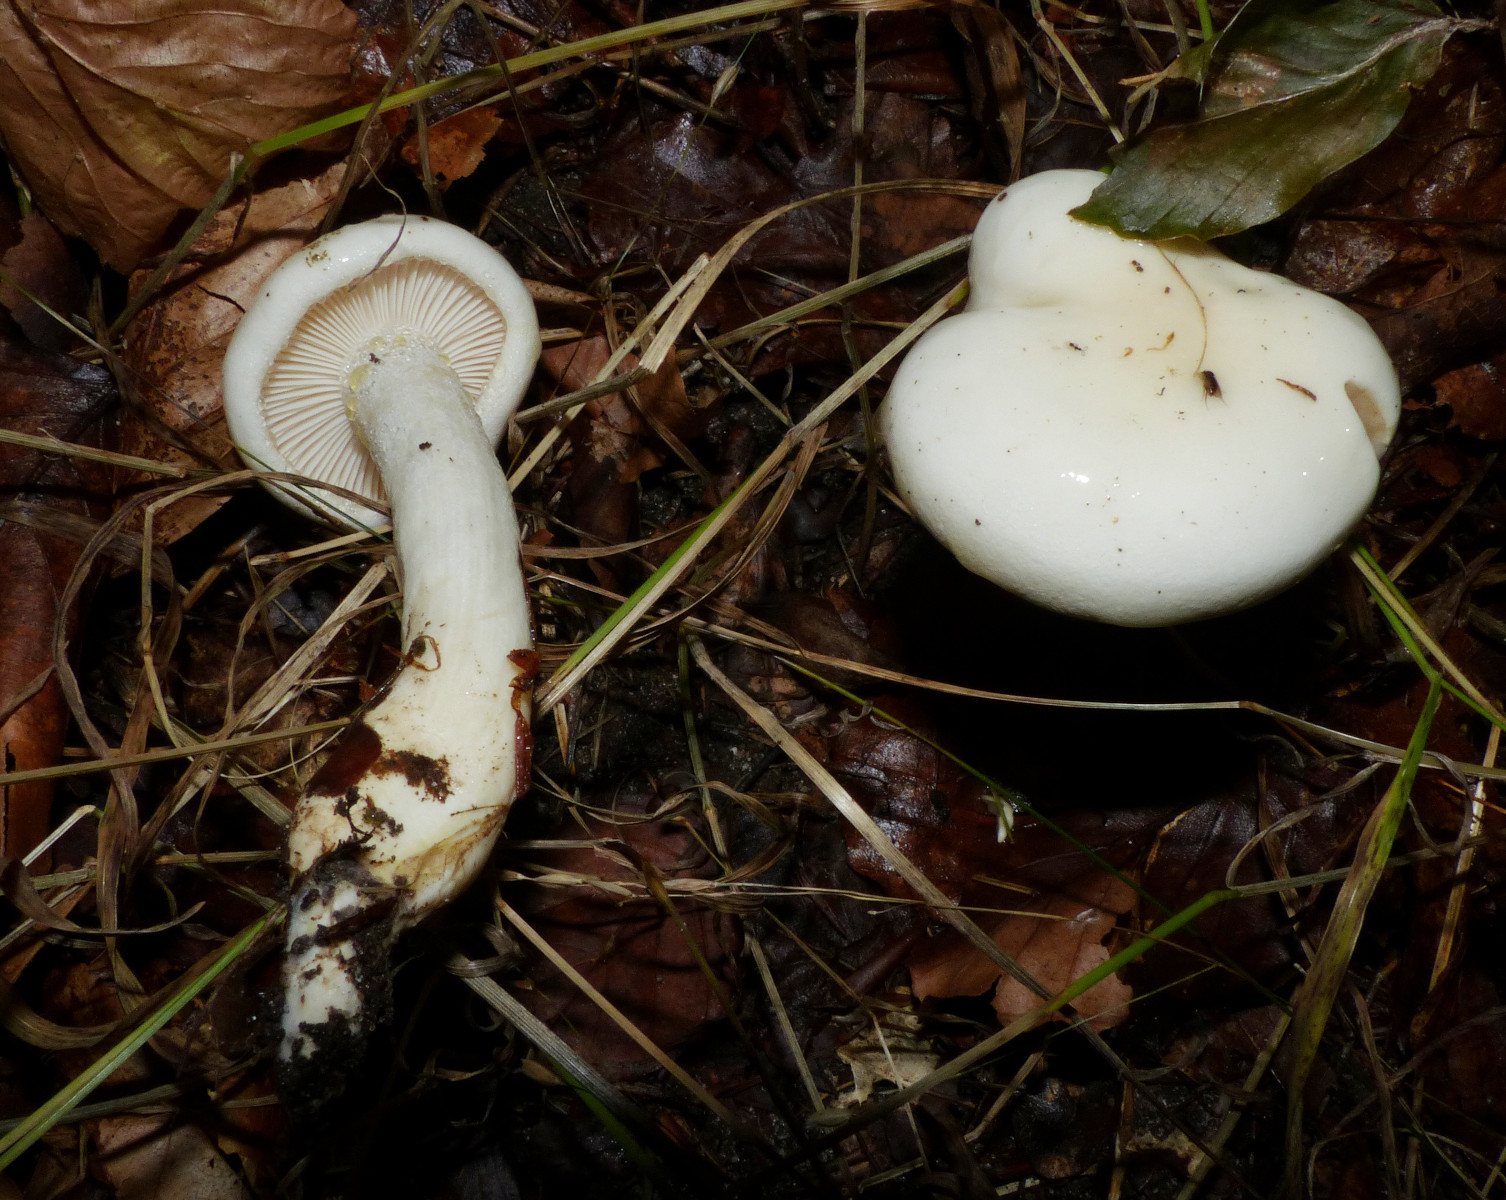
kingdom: Fungi
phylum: Basidiomycota
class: Agaricomycetes
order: Agaricales
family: Hygrophoraceae
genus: Hygrophorus
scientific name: Hygrophorus discoxanthus
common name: ildelugtende sneglehat
